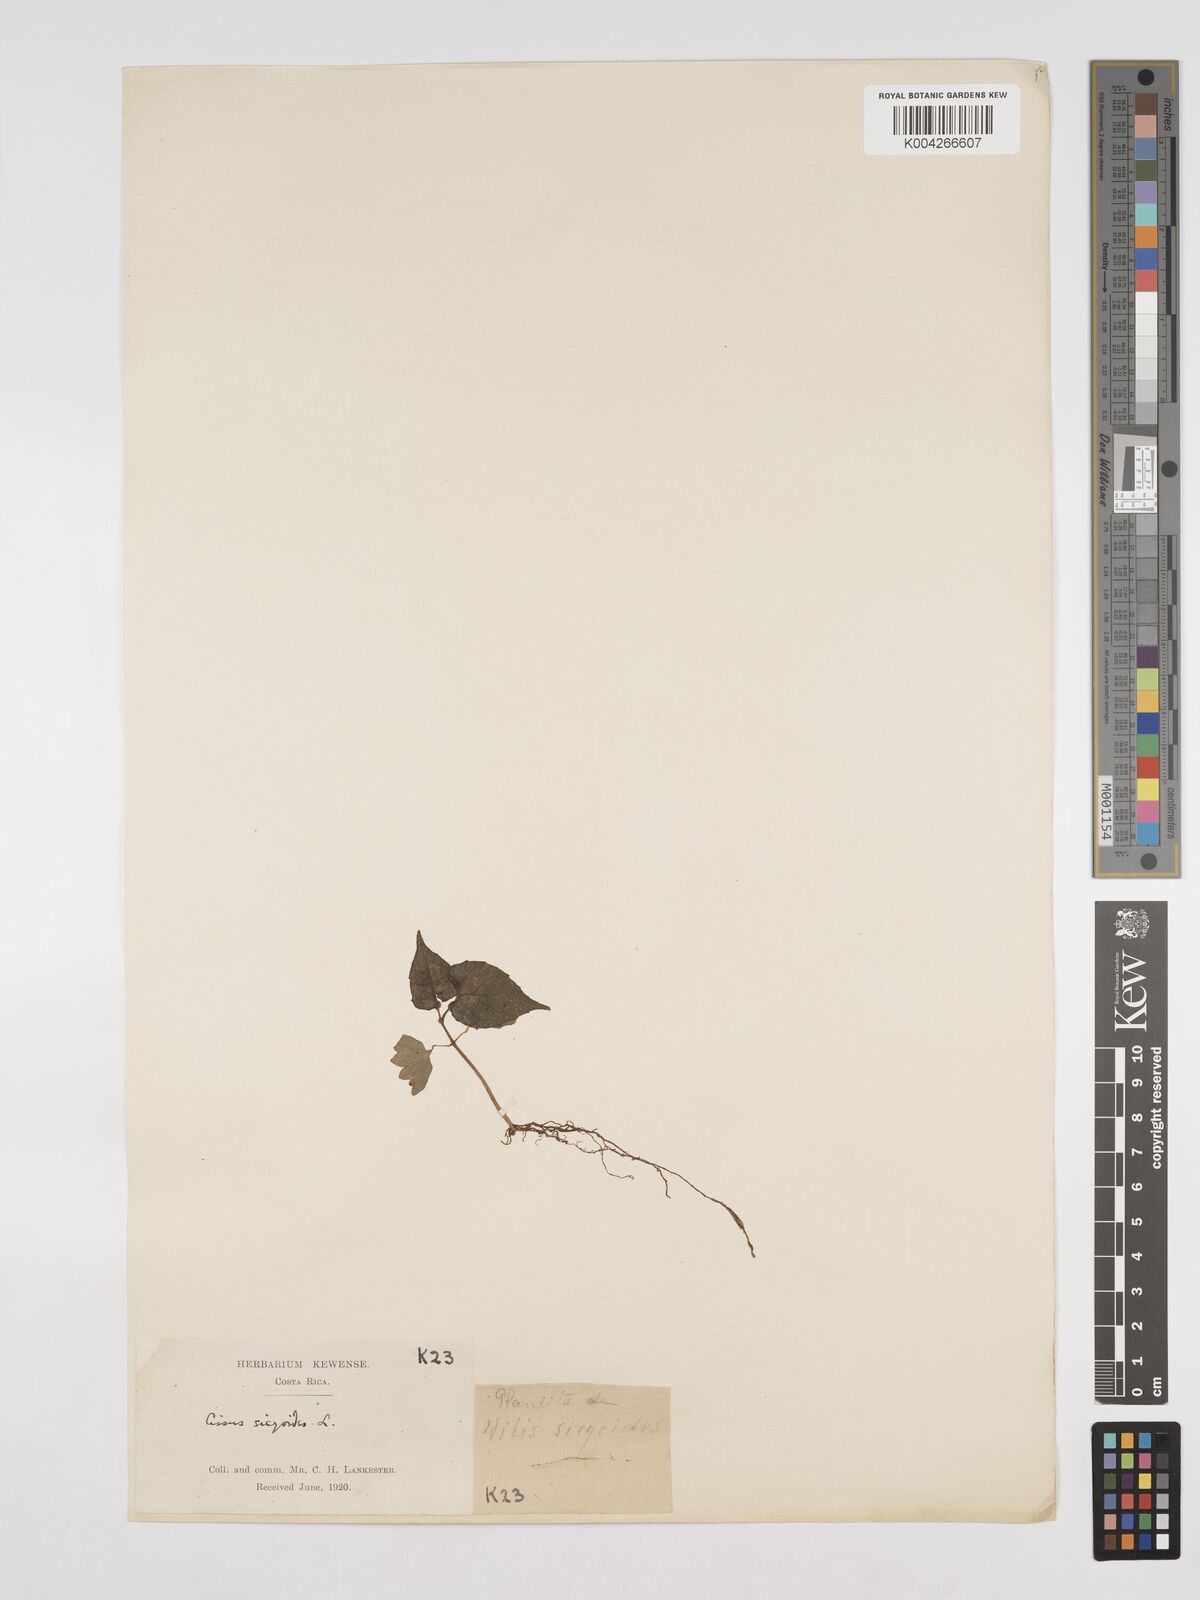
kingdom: Plantae
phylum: Tracheophyta
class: Magnoliopsida
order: Vitales
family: Vitaceae
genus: Cissus
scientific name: Cissus
